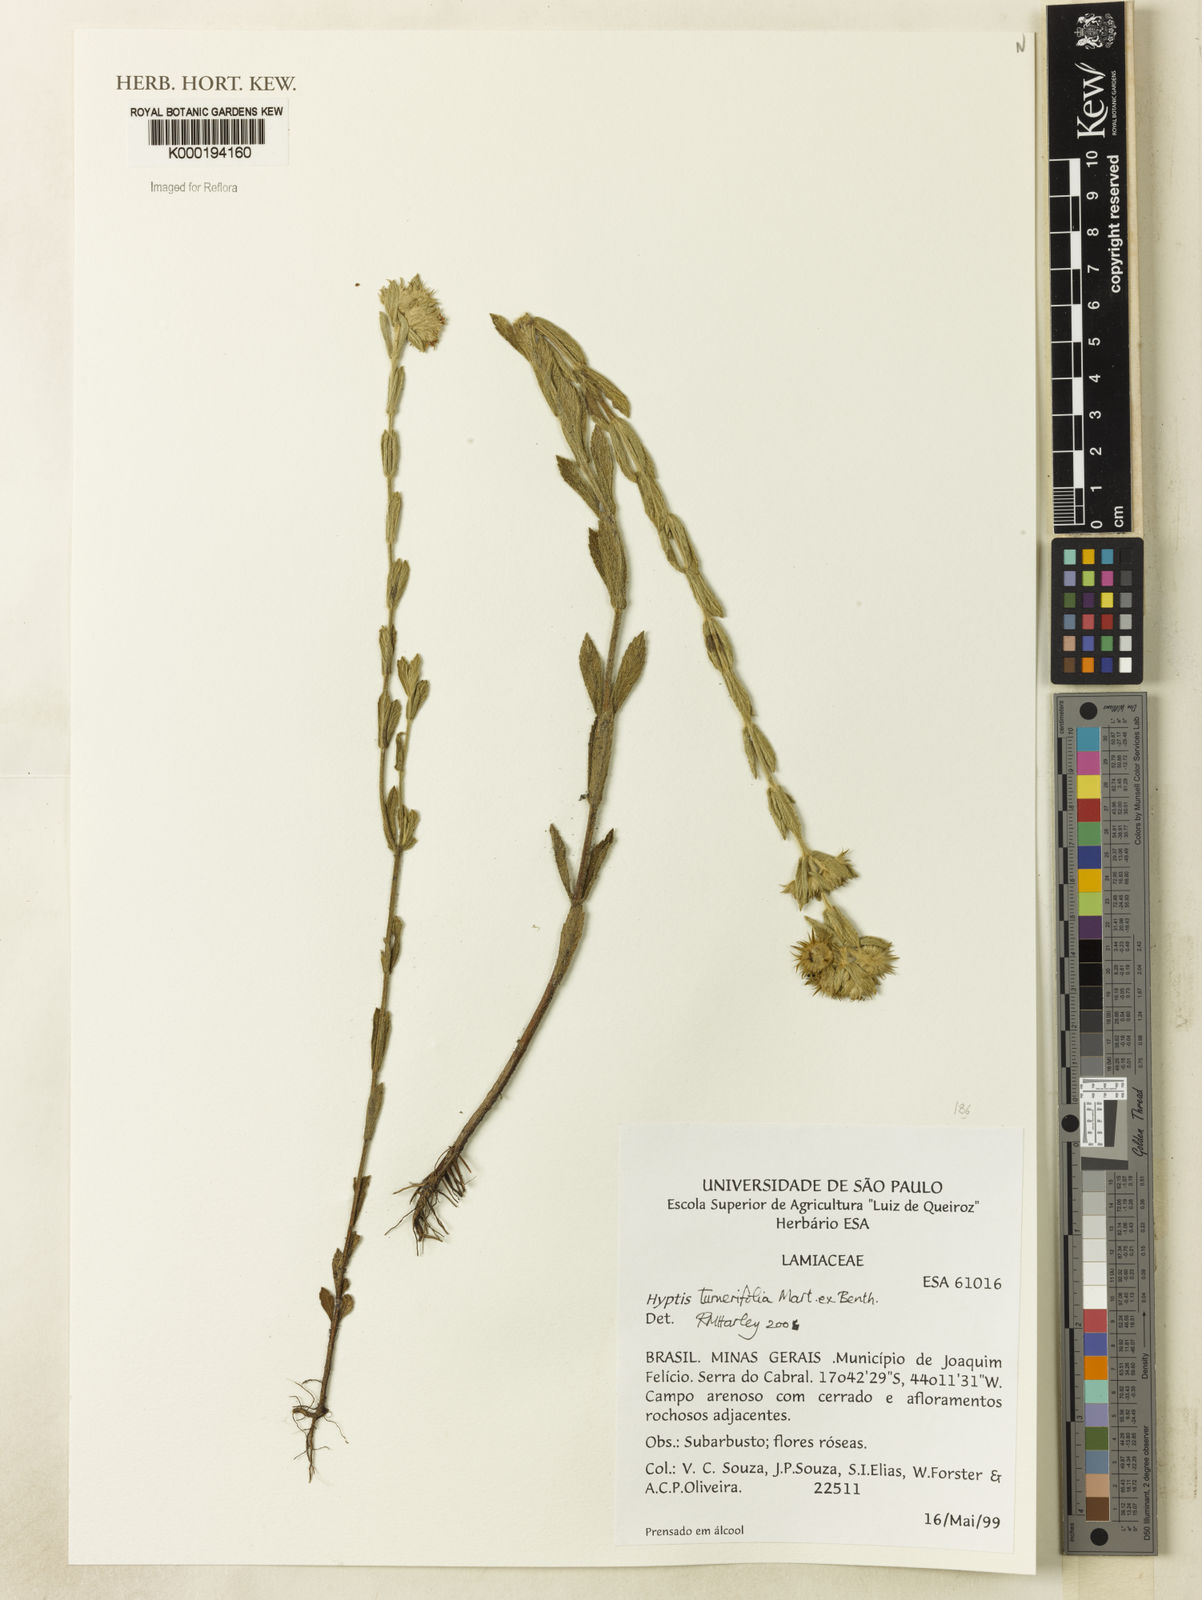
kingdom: Plantae
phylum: Tracheophyta
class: Magnoliopsida
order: Lamiales
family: Lamiaceae
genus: Hyptis
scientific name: Hyptis turnerifolia
